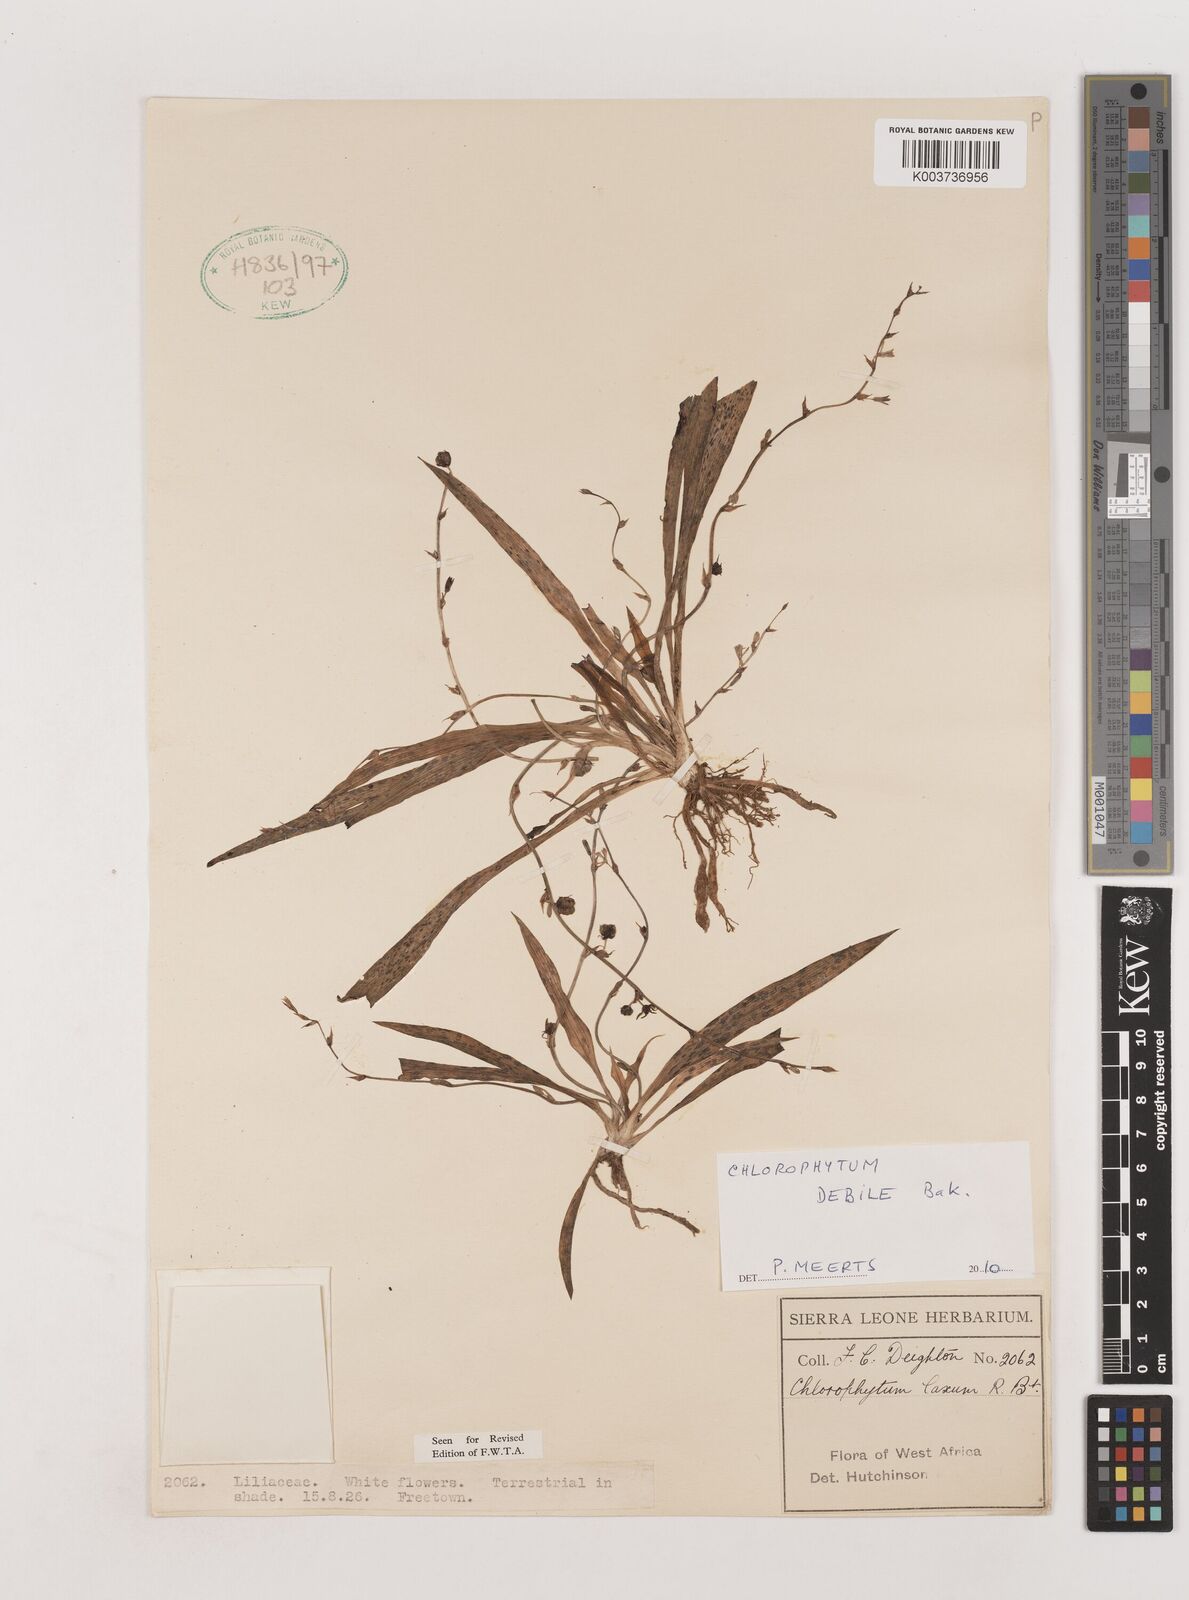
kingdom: Plantae
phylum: Tracheophyta
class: Liliopsida
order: Asparagales
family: Asparagaceae
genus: Chlorophytum
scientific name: Chlorophytum laxum
